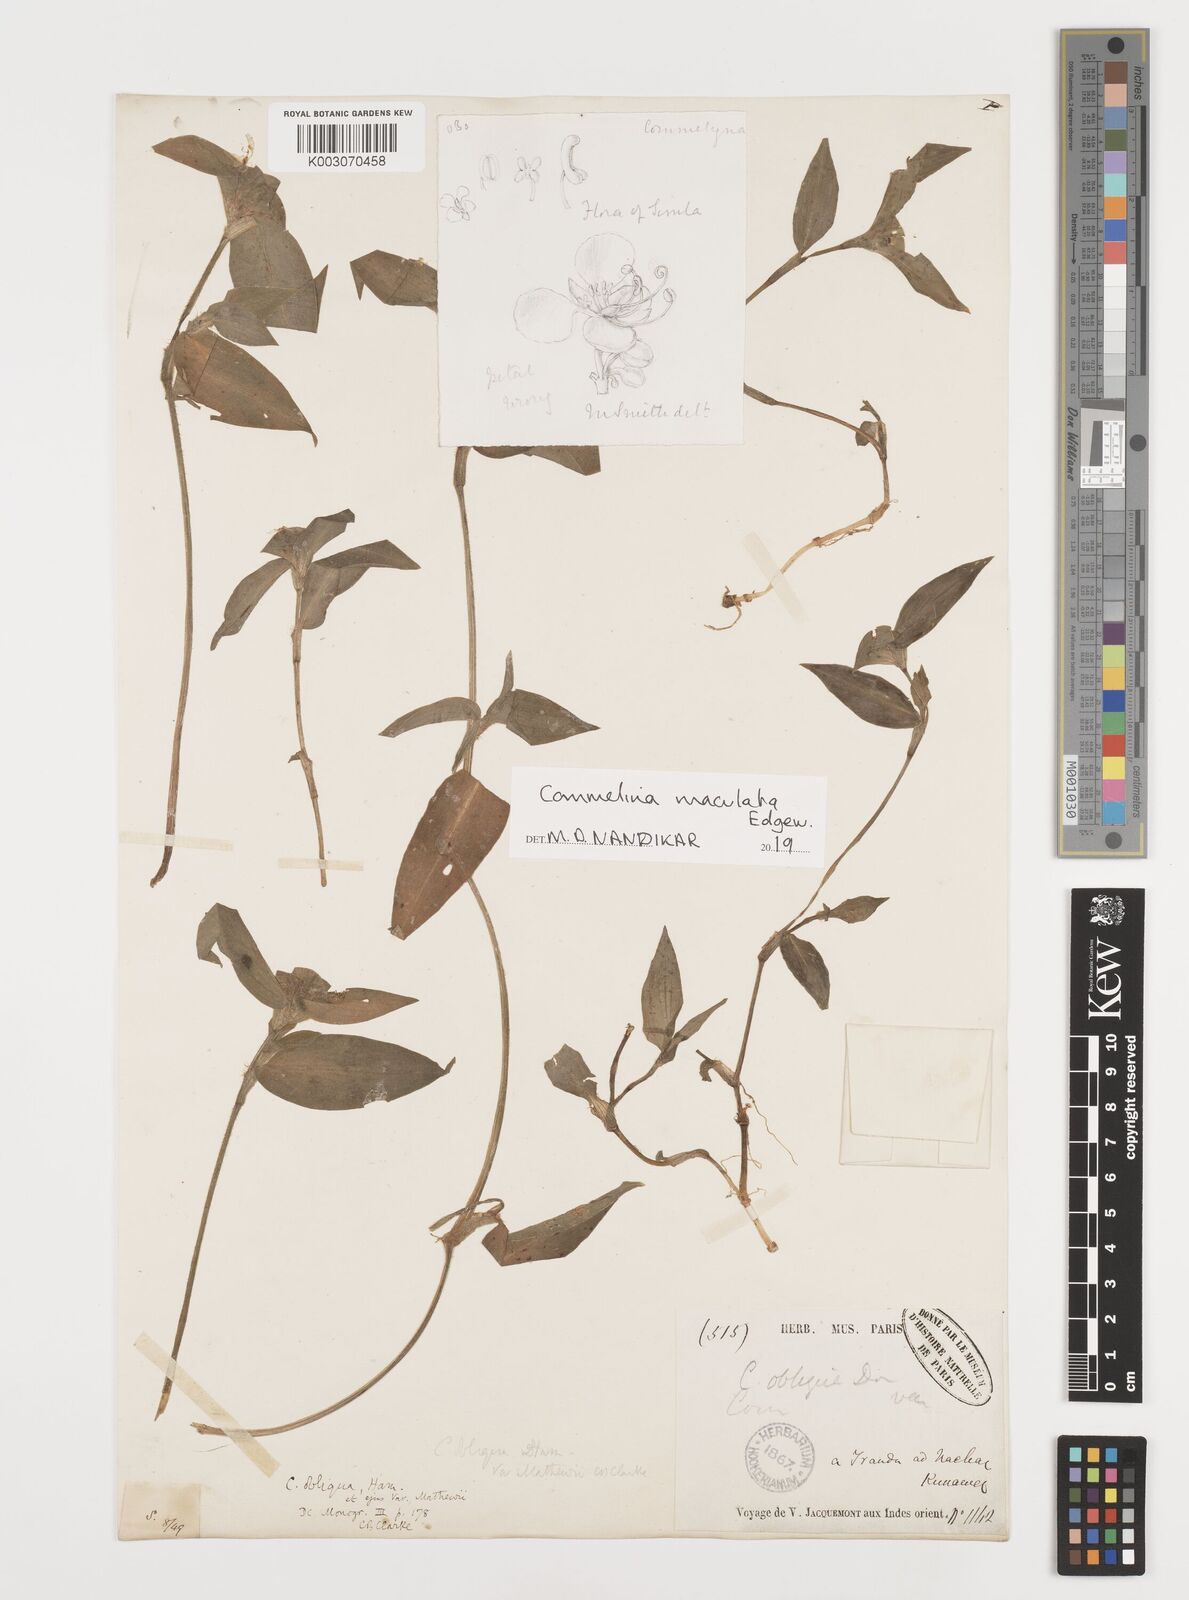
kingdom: Plantae
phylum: Tracheophyta
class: Liliopsida
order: Commelinales
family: Commelinaceae
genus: Commelina
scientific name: Commelina maculata
